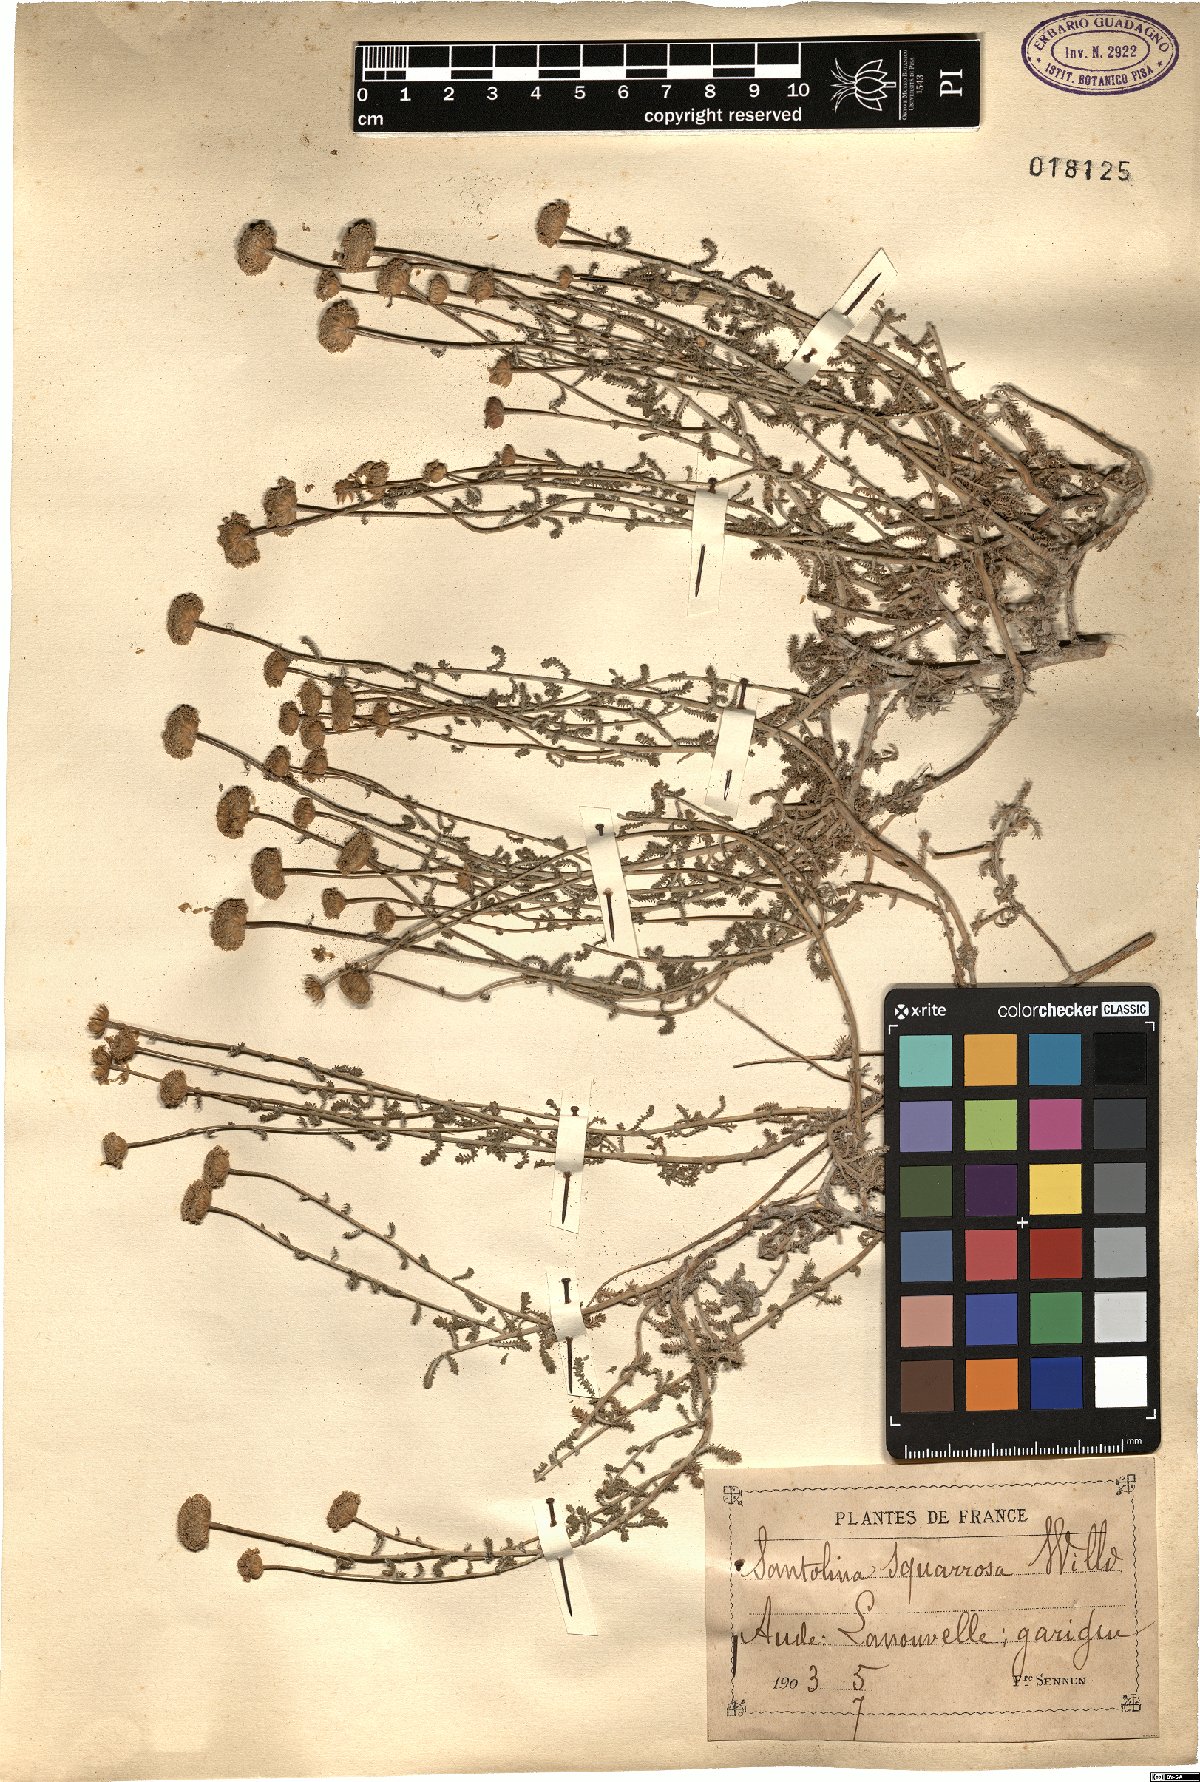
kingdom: Plantae
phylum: Tracheophyta
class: Magnoliopsida
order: Asterales
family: Asteraceae
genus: Santolina
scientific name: Santolina ericoides
